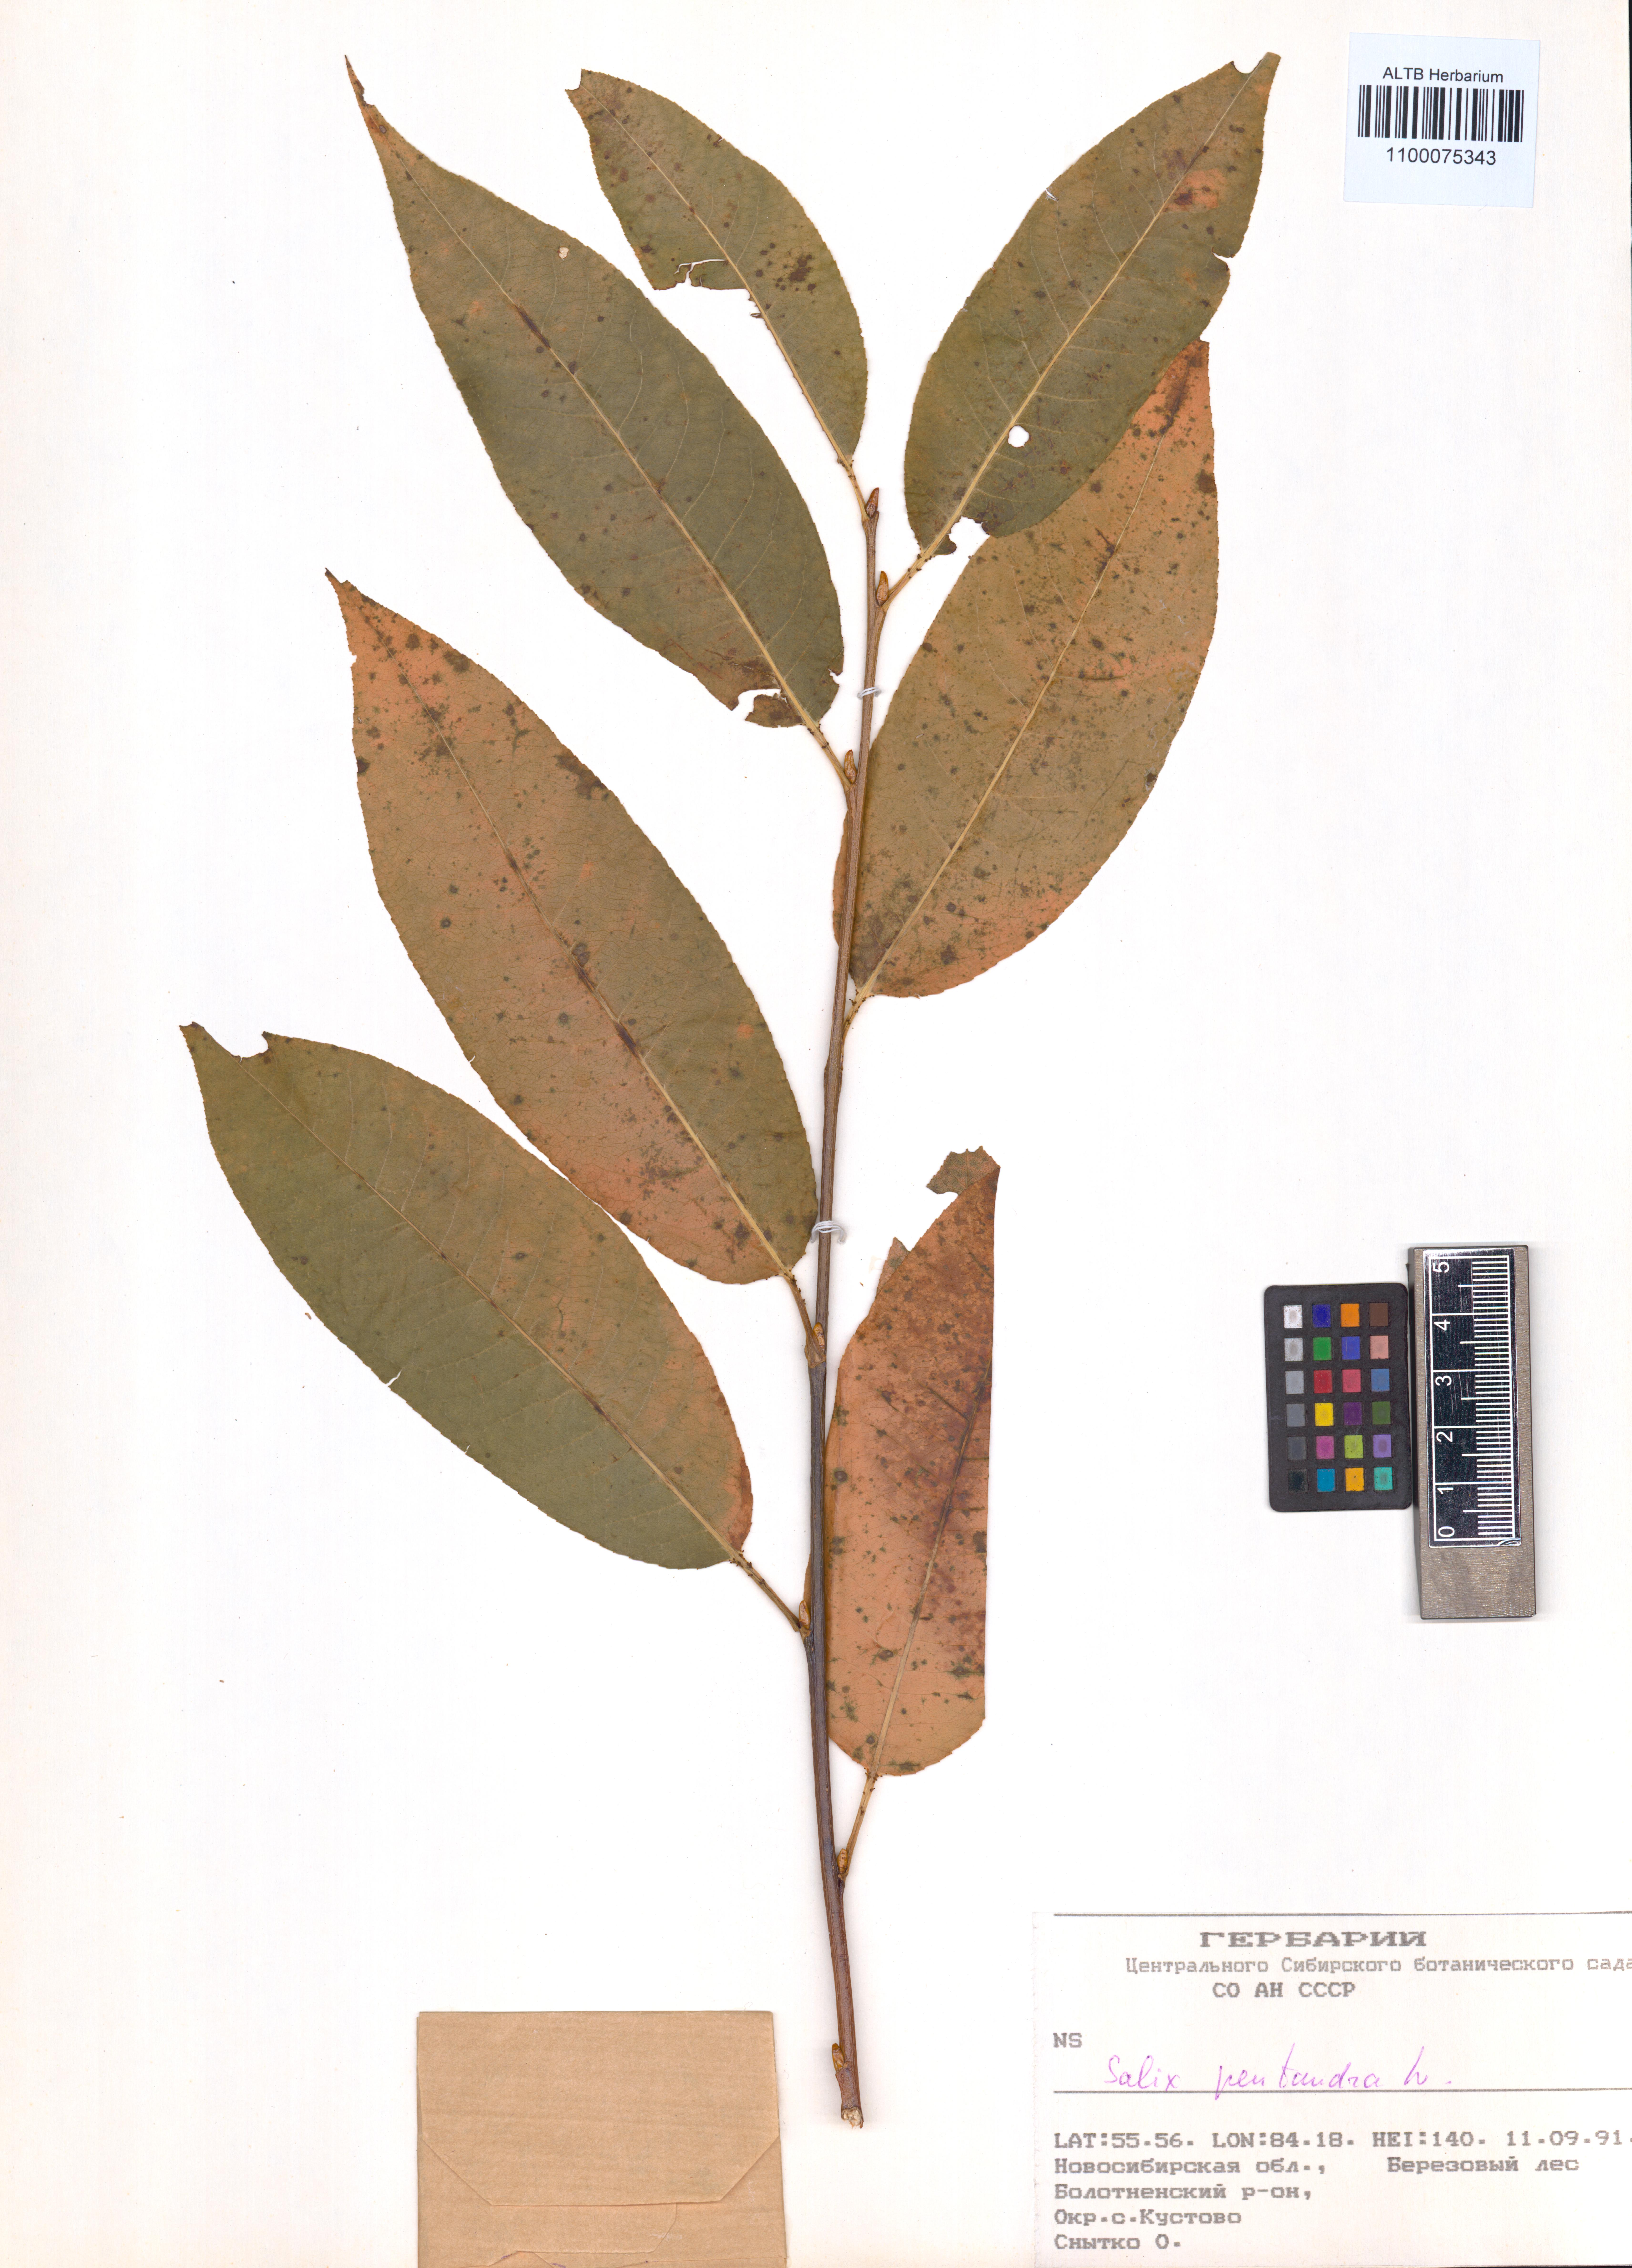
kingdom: Plantae
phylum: Tracheophyta
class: Magnoliopsida
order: Malpighiales
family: Salicaceae
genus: Salix
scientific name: Salix pentandra
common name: Bay willow
